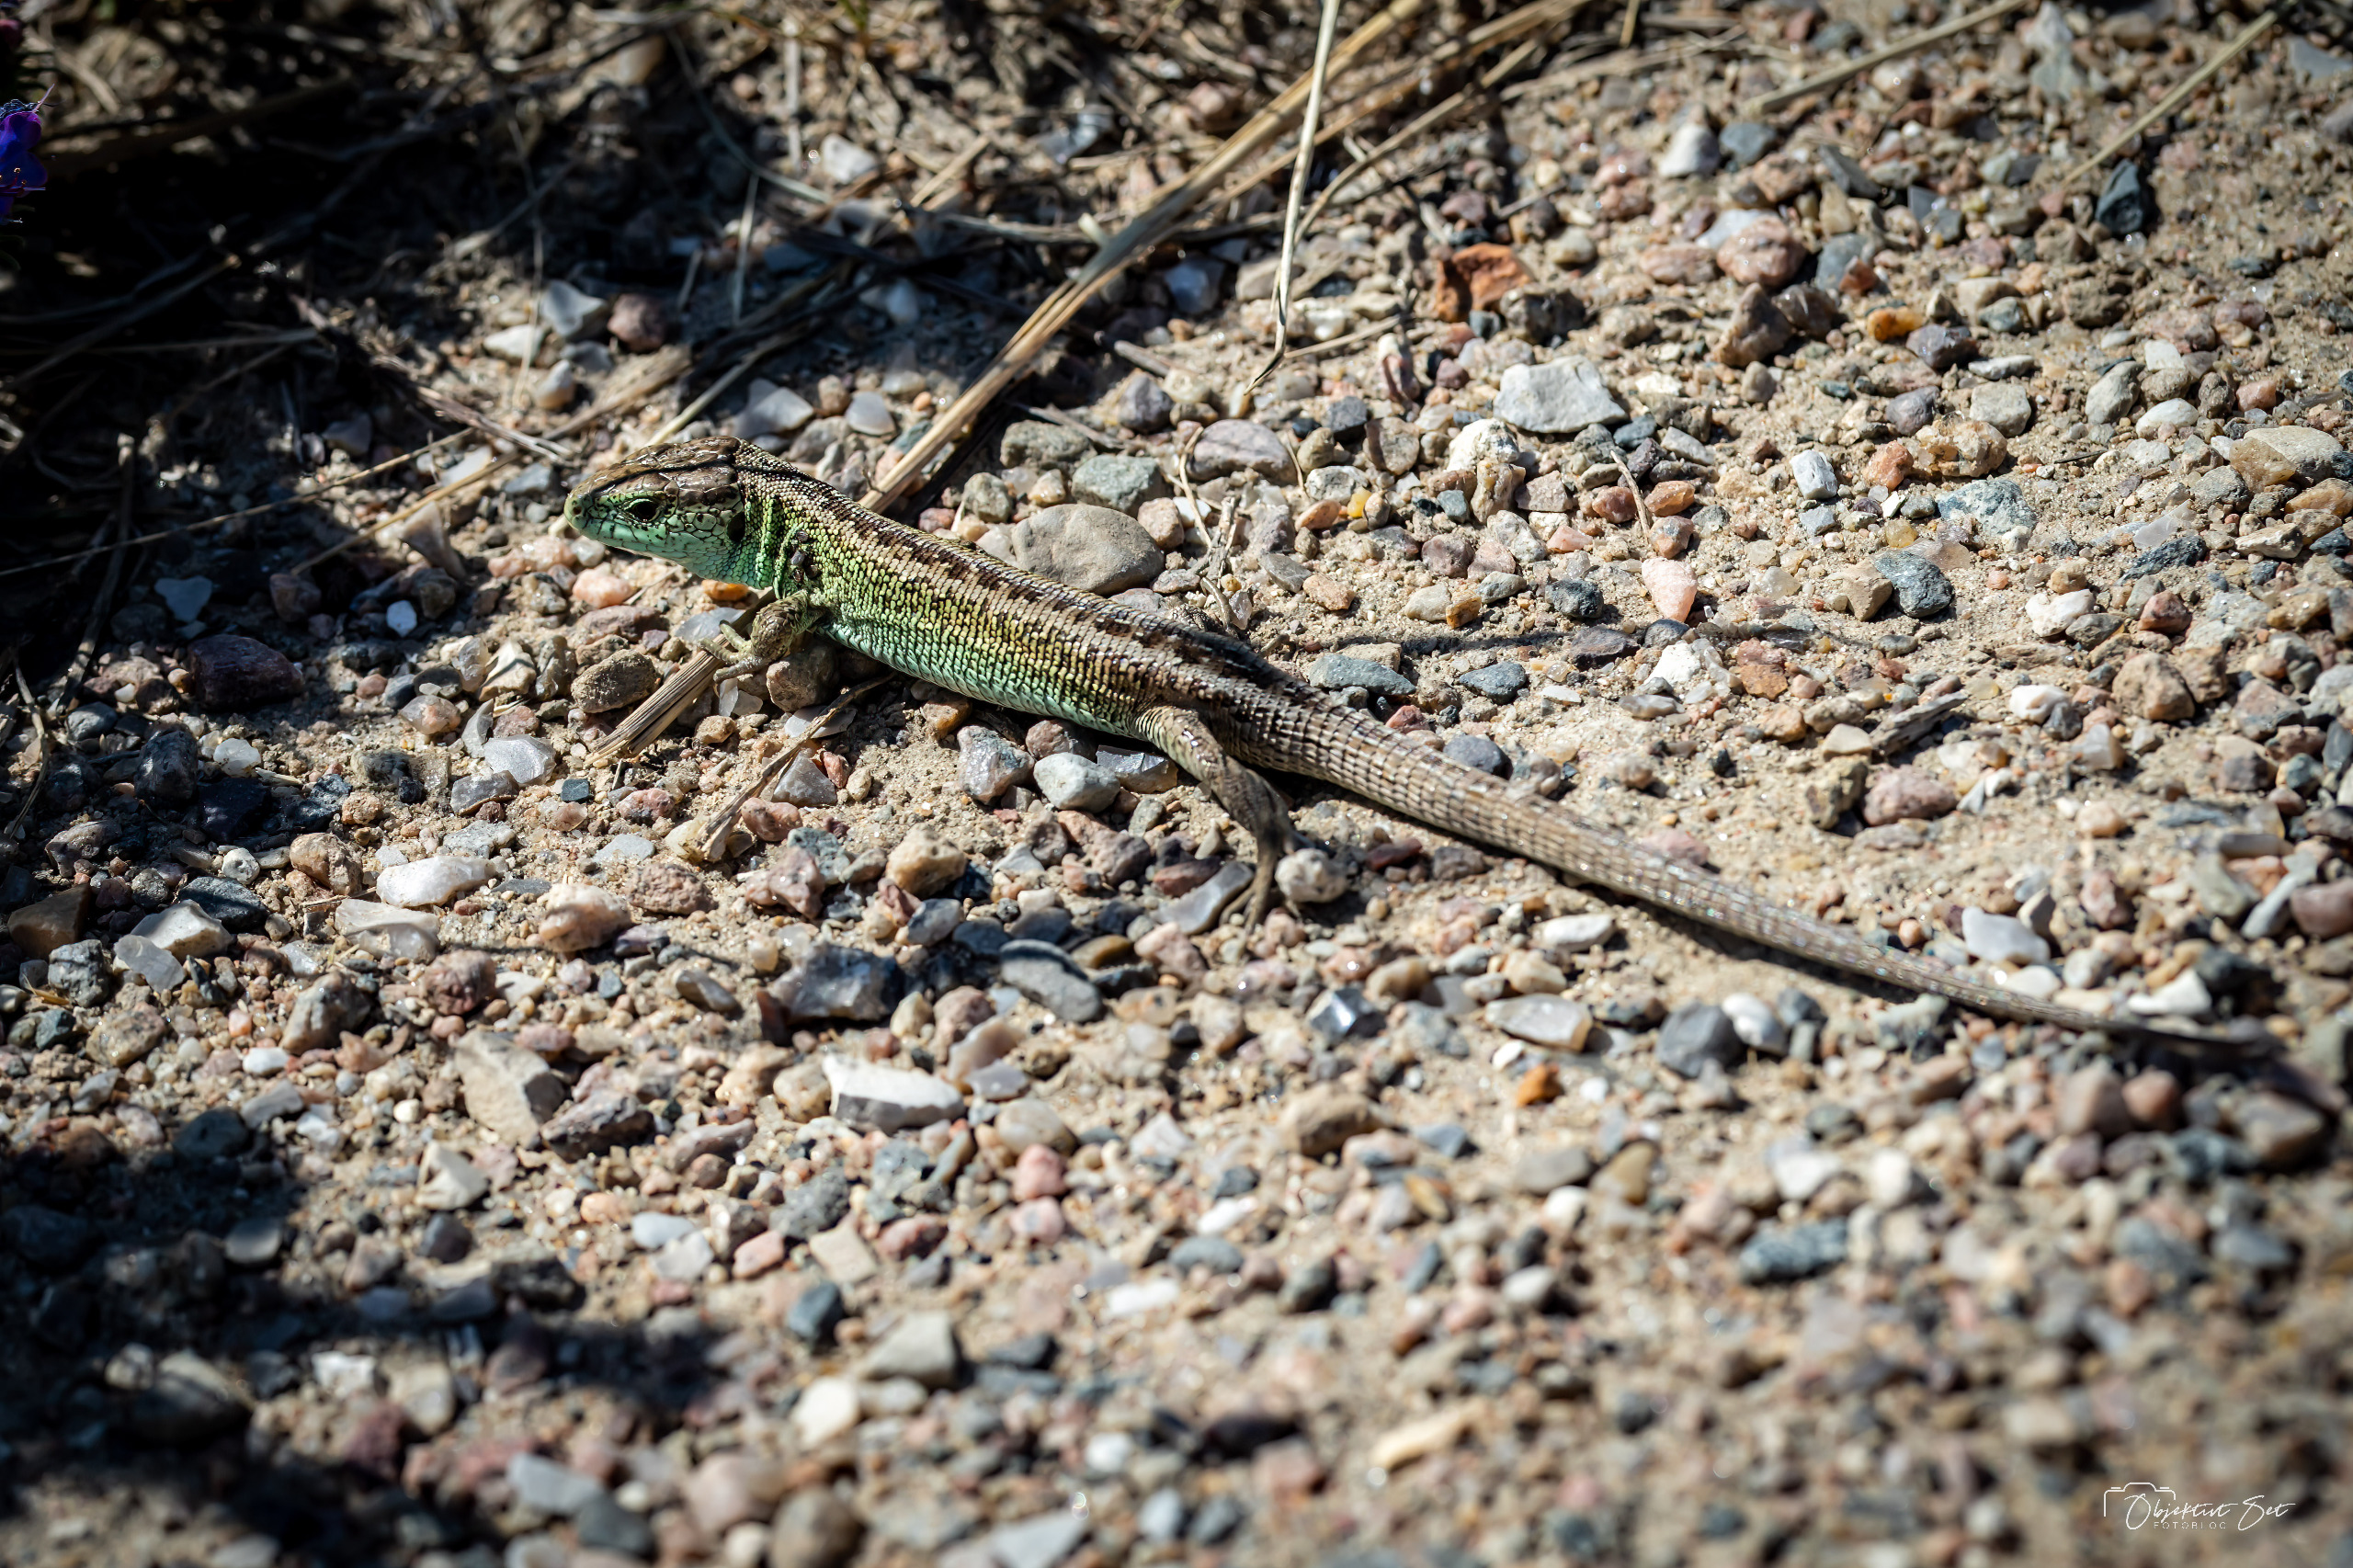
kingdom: Animalia
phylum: Chordata
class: Squamata
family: Lacertidae
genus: Lacerta
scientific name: Lacerta agilis
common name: Markfirben
